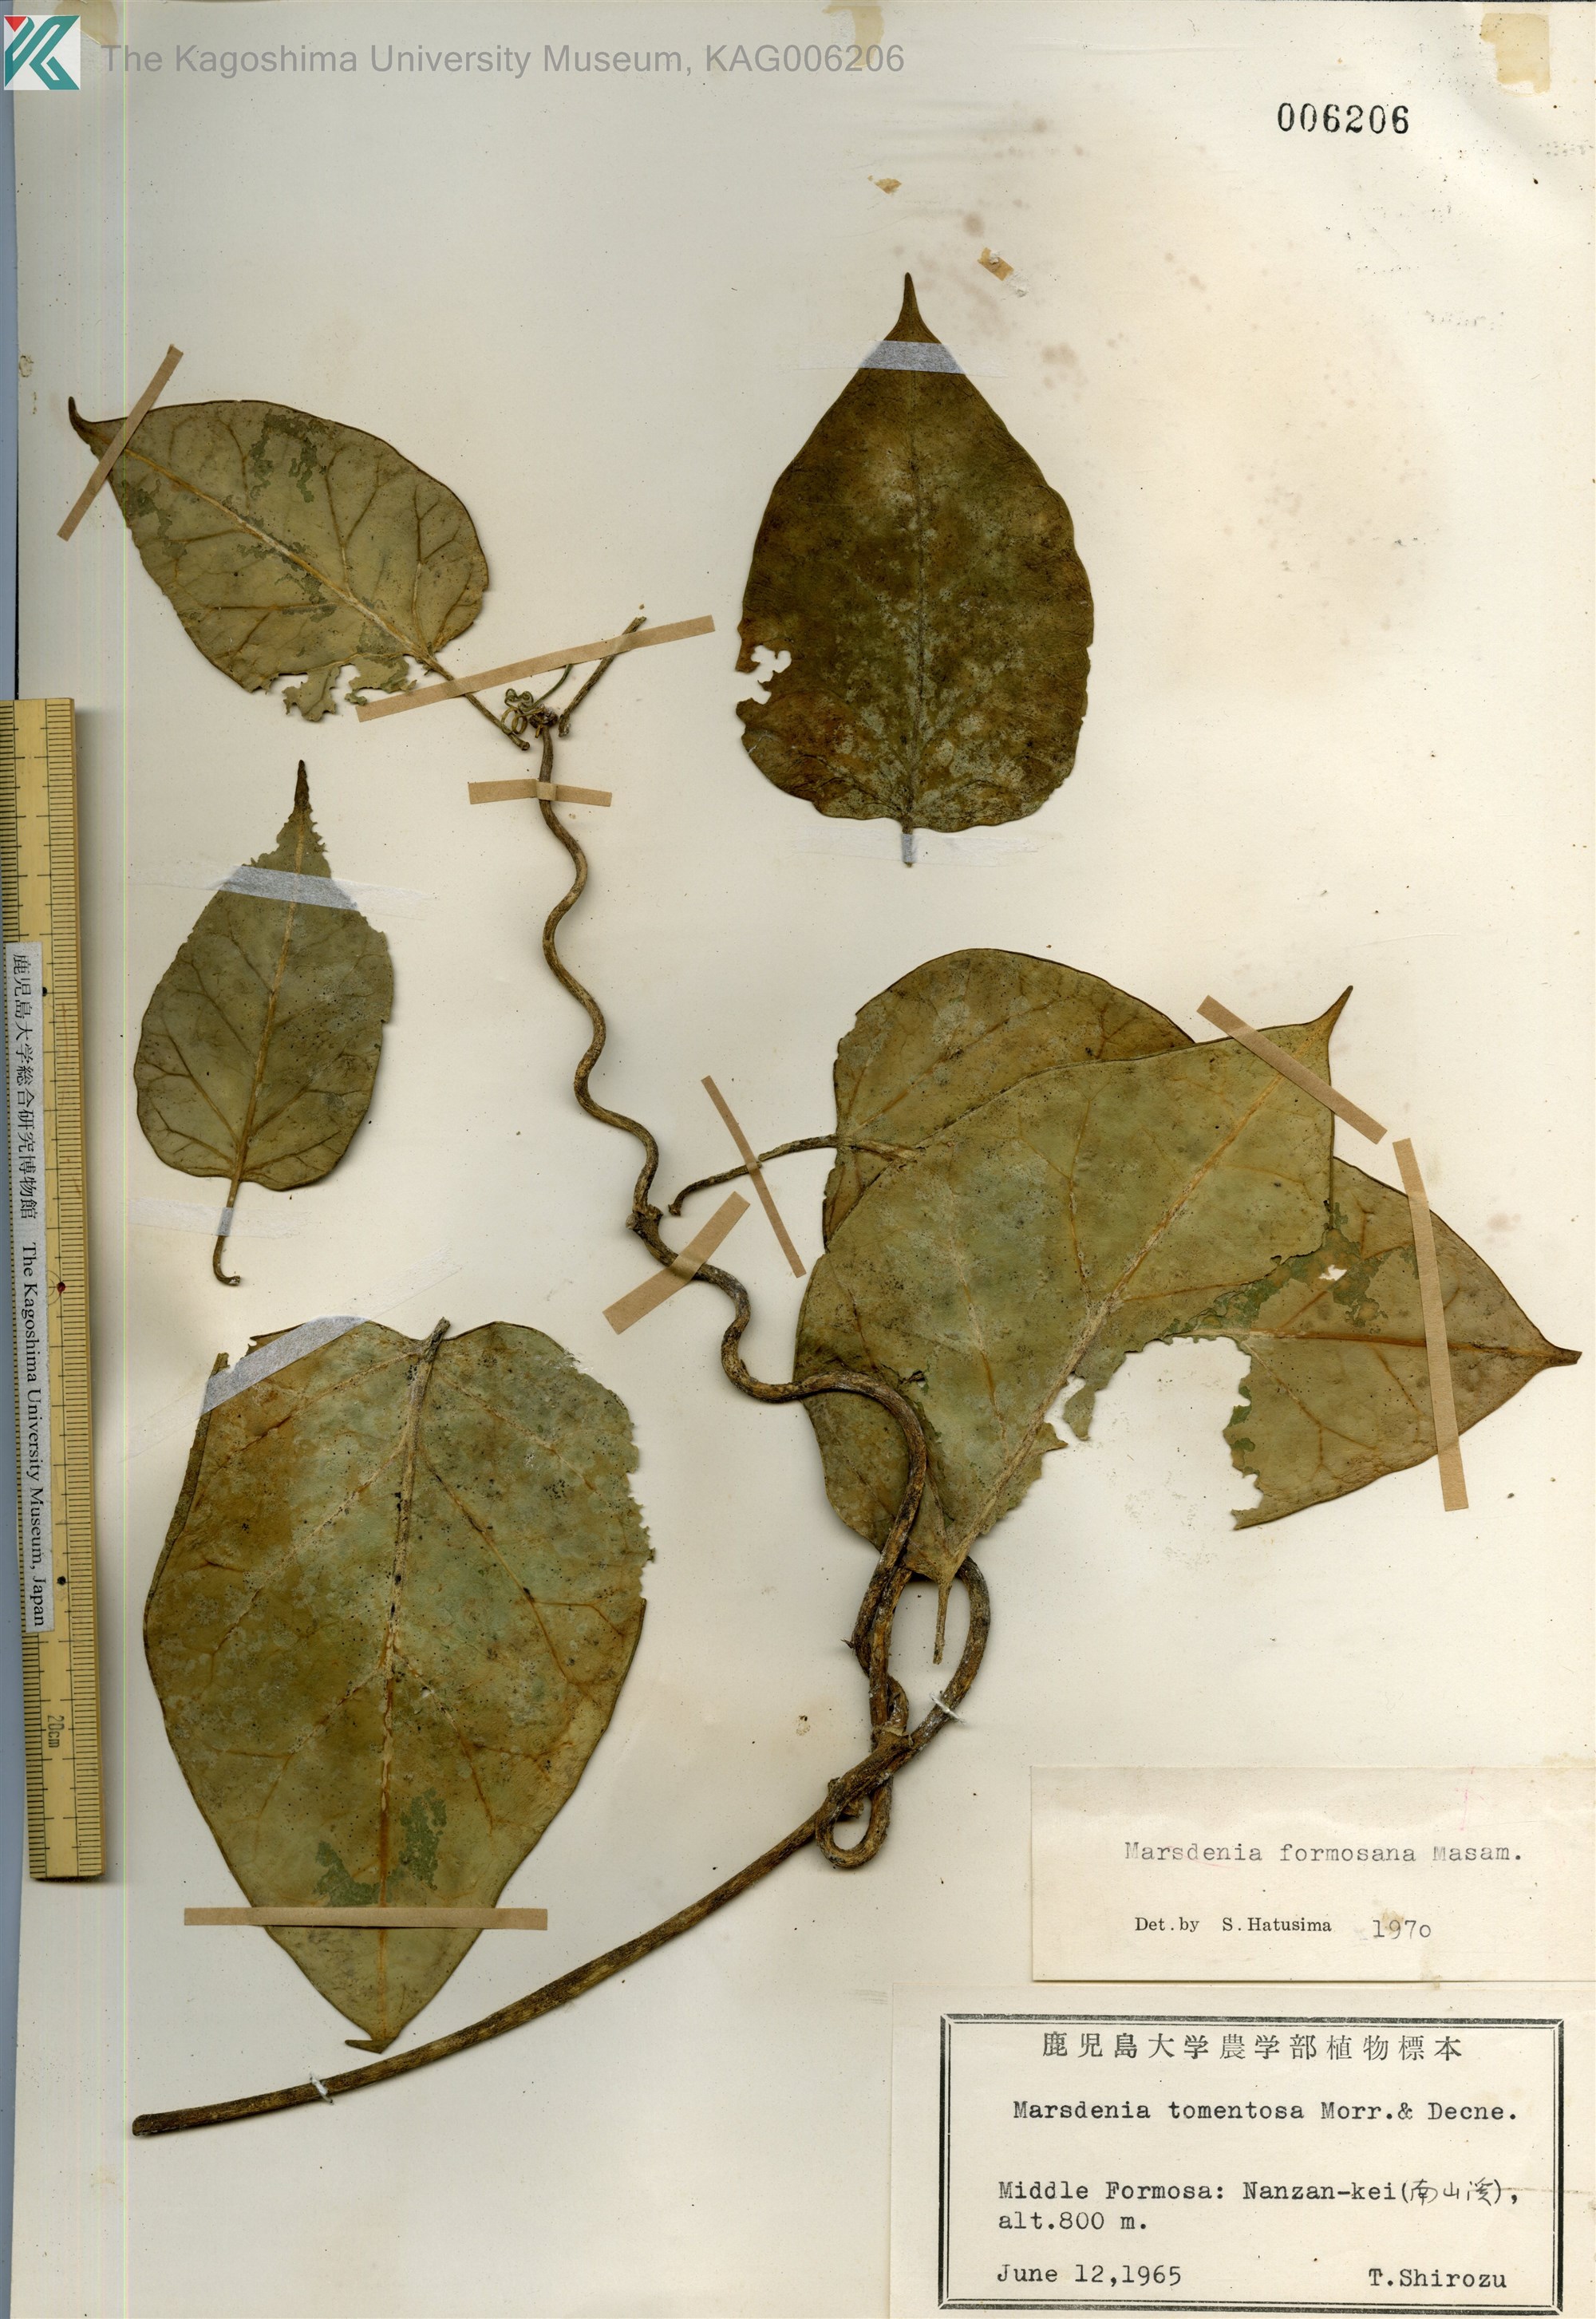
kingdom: Plantae
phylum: Tracheophyta
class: Magnoliopsida
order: Gentianales
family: Apocynaceae
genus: Sinomarsdenia
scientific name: Sinomarsdenia formosana
